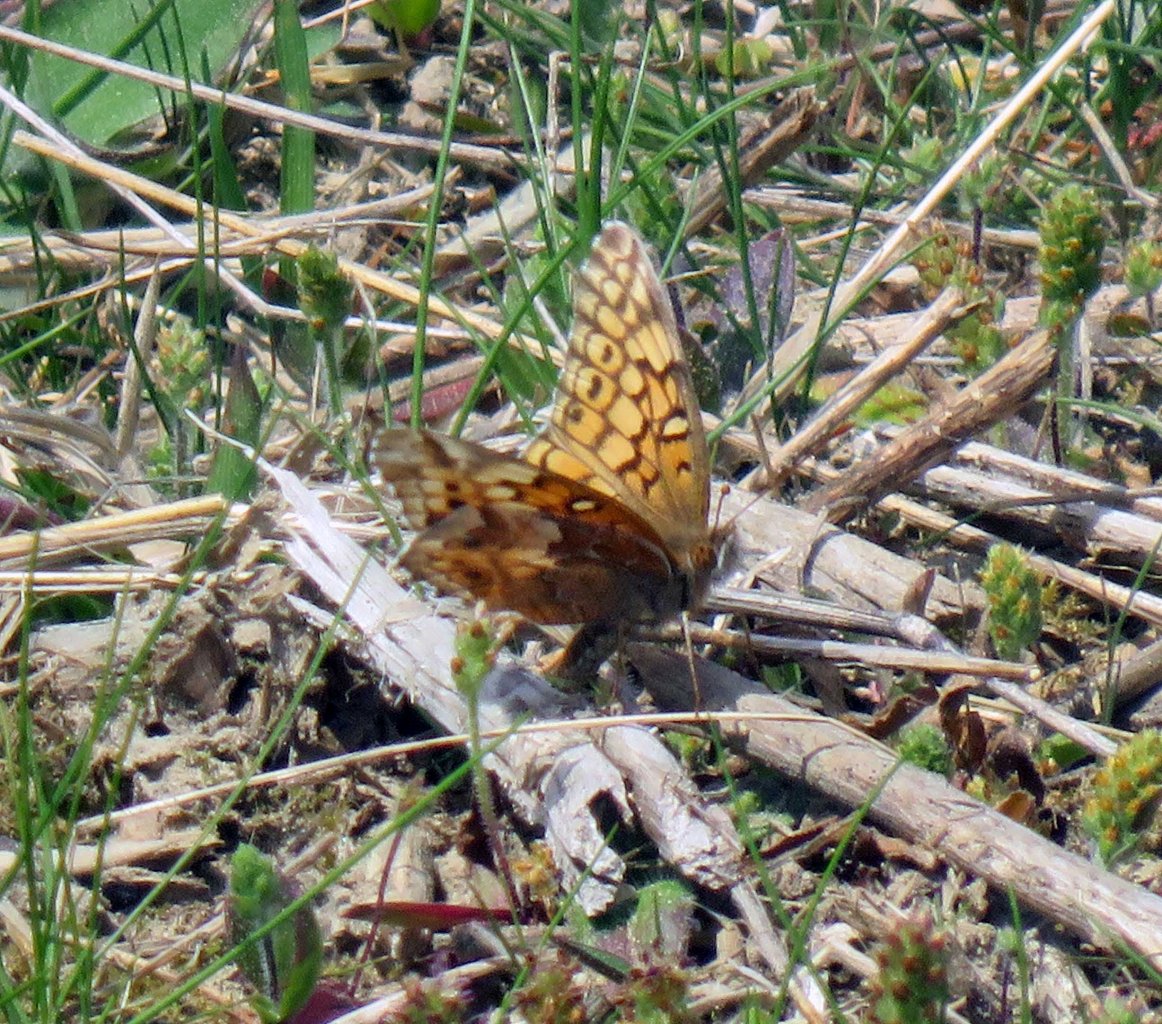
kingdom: Animalia
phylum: Arthropoda
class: Insecta
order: Lepidoptera
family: Nymphalidae
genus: Euptoieta
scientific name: Euptoieta claudia
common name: Variegated Fritillary
